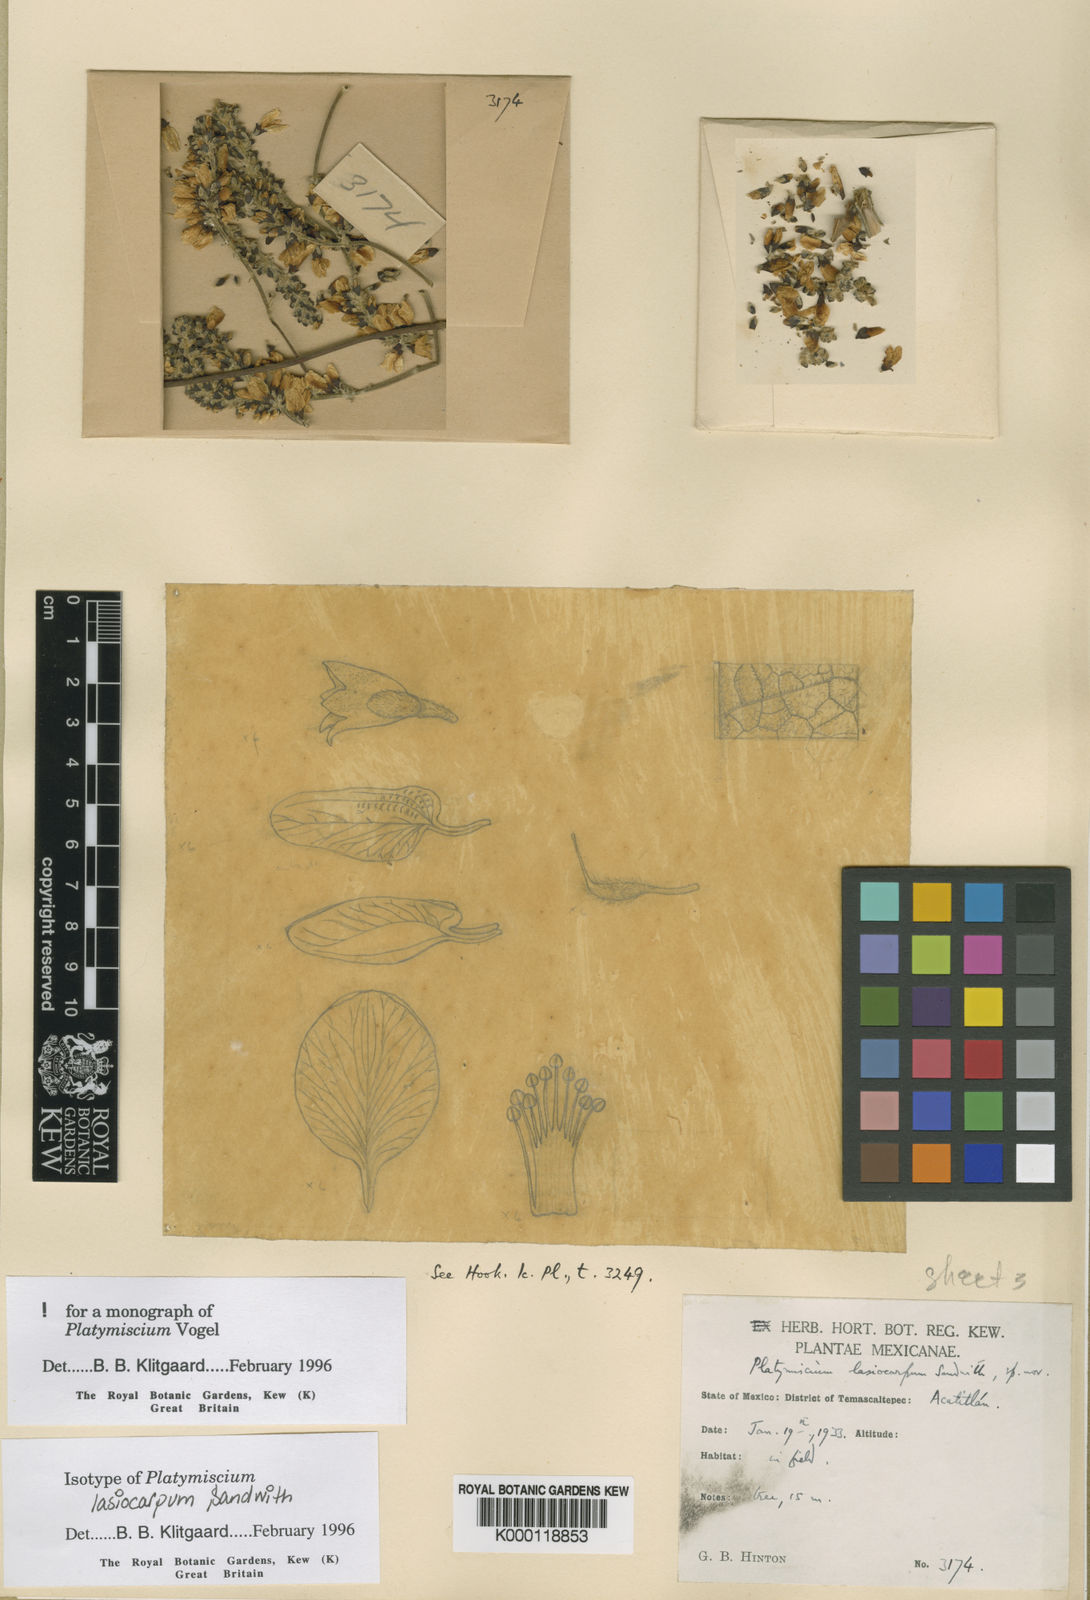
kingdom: Plantae
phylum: Tracheophyta
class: Magnoliopsida
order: Fabales
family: Fabaceae
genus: Platymiscium
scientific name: Platymiscium lasiocarpum
